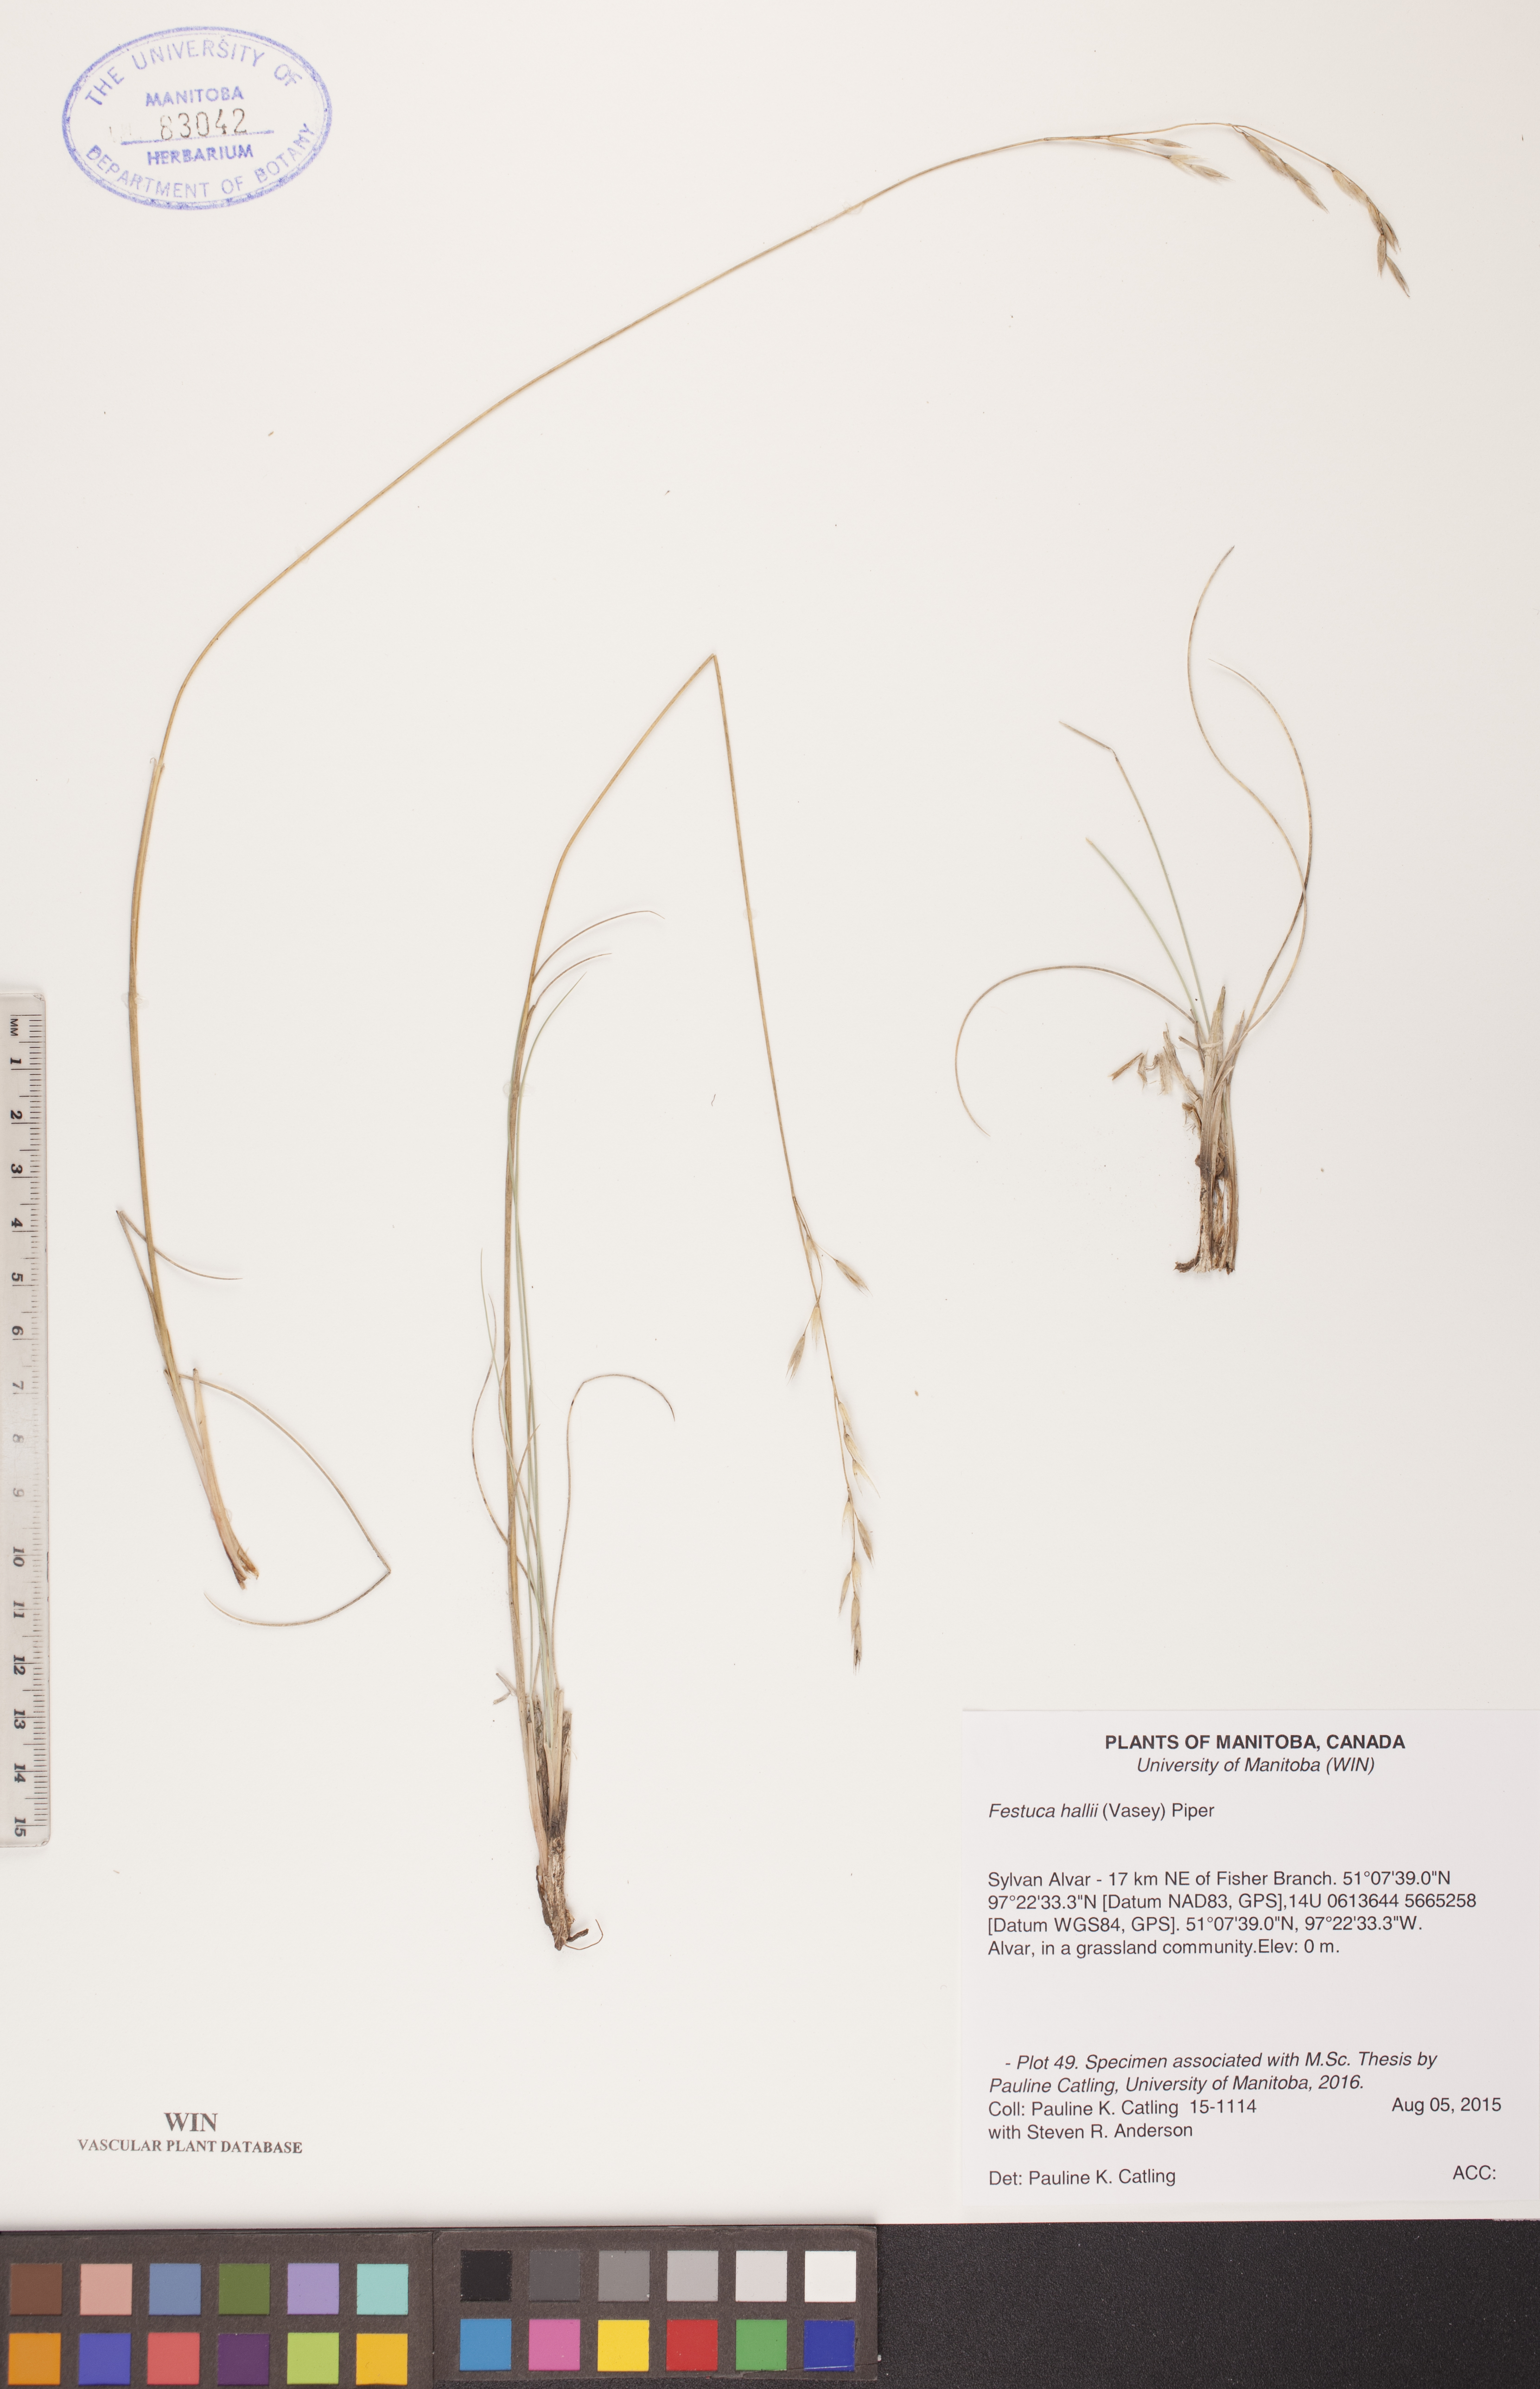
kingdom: Plantae
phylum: Tracheophyta
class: Liliopsida
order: Poales
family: Poaceae
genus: Festuca
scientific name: Festuca hallii
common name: Hall's fescue
